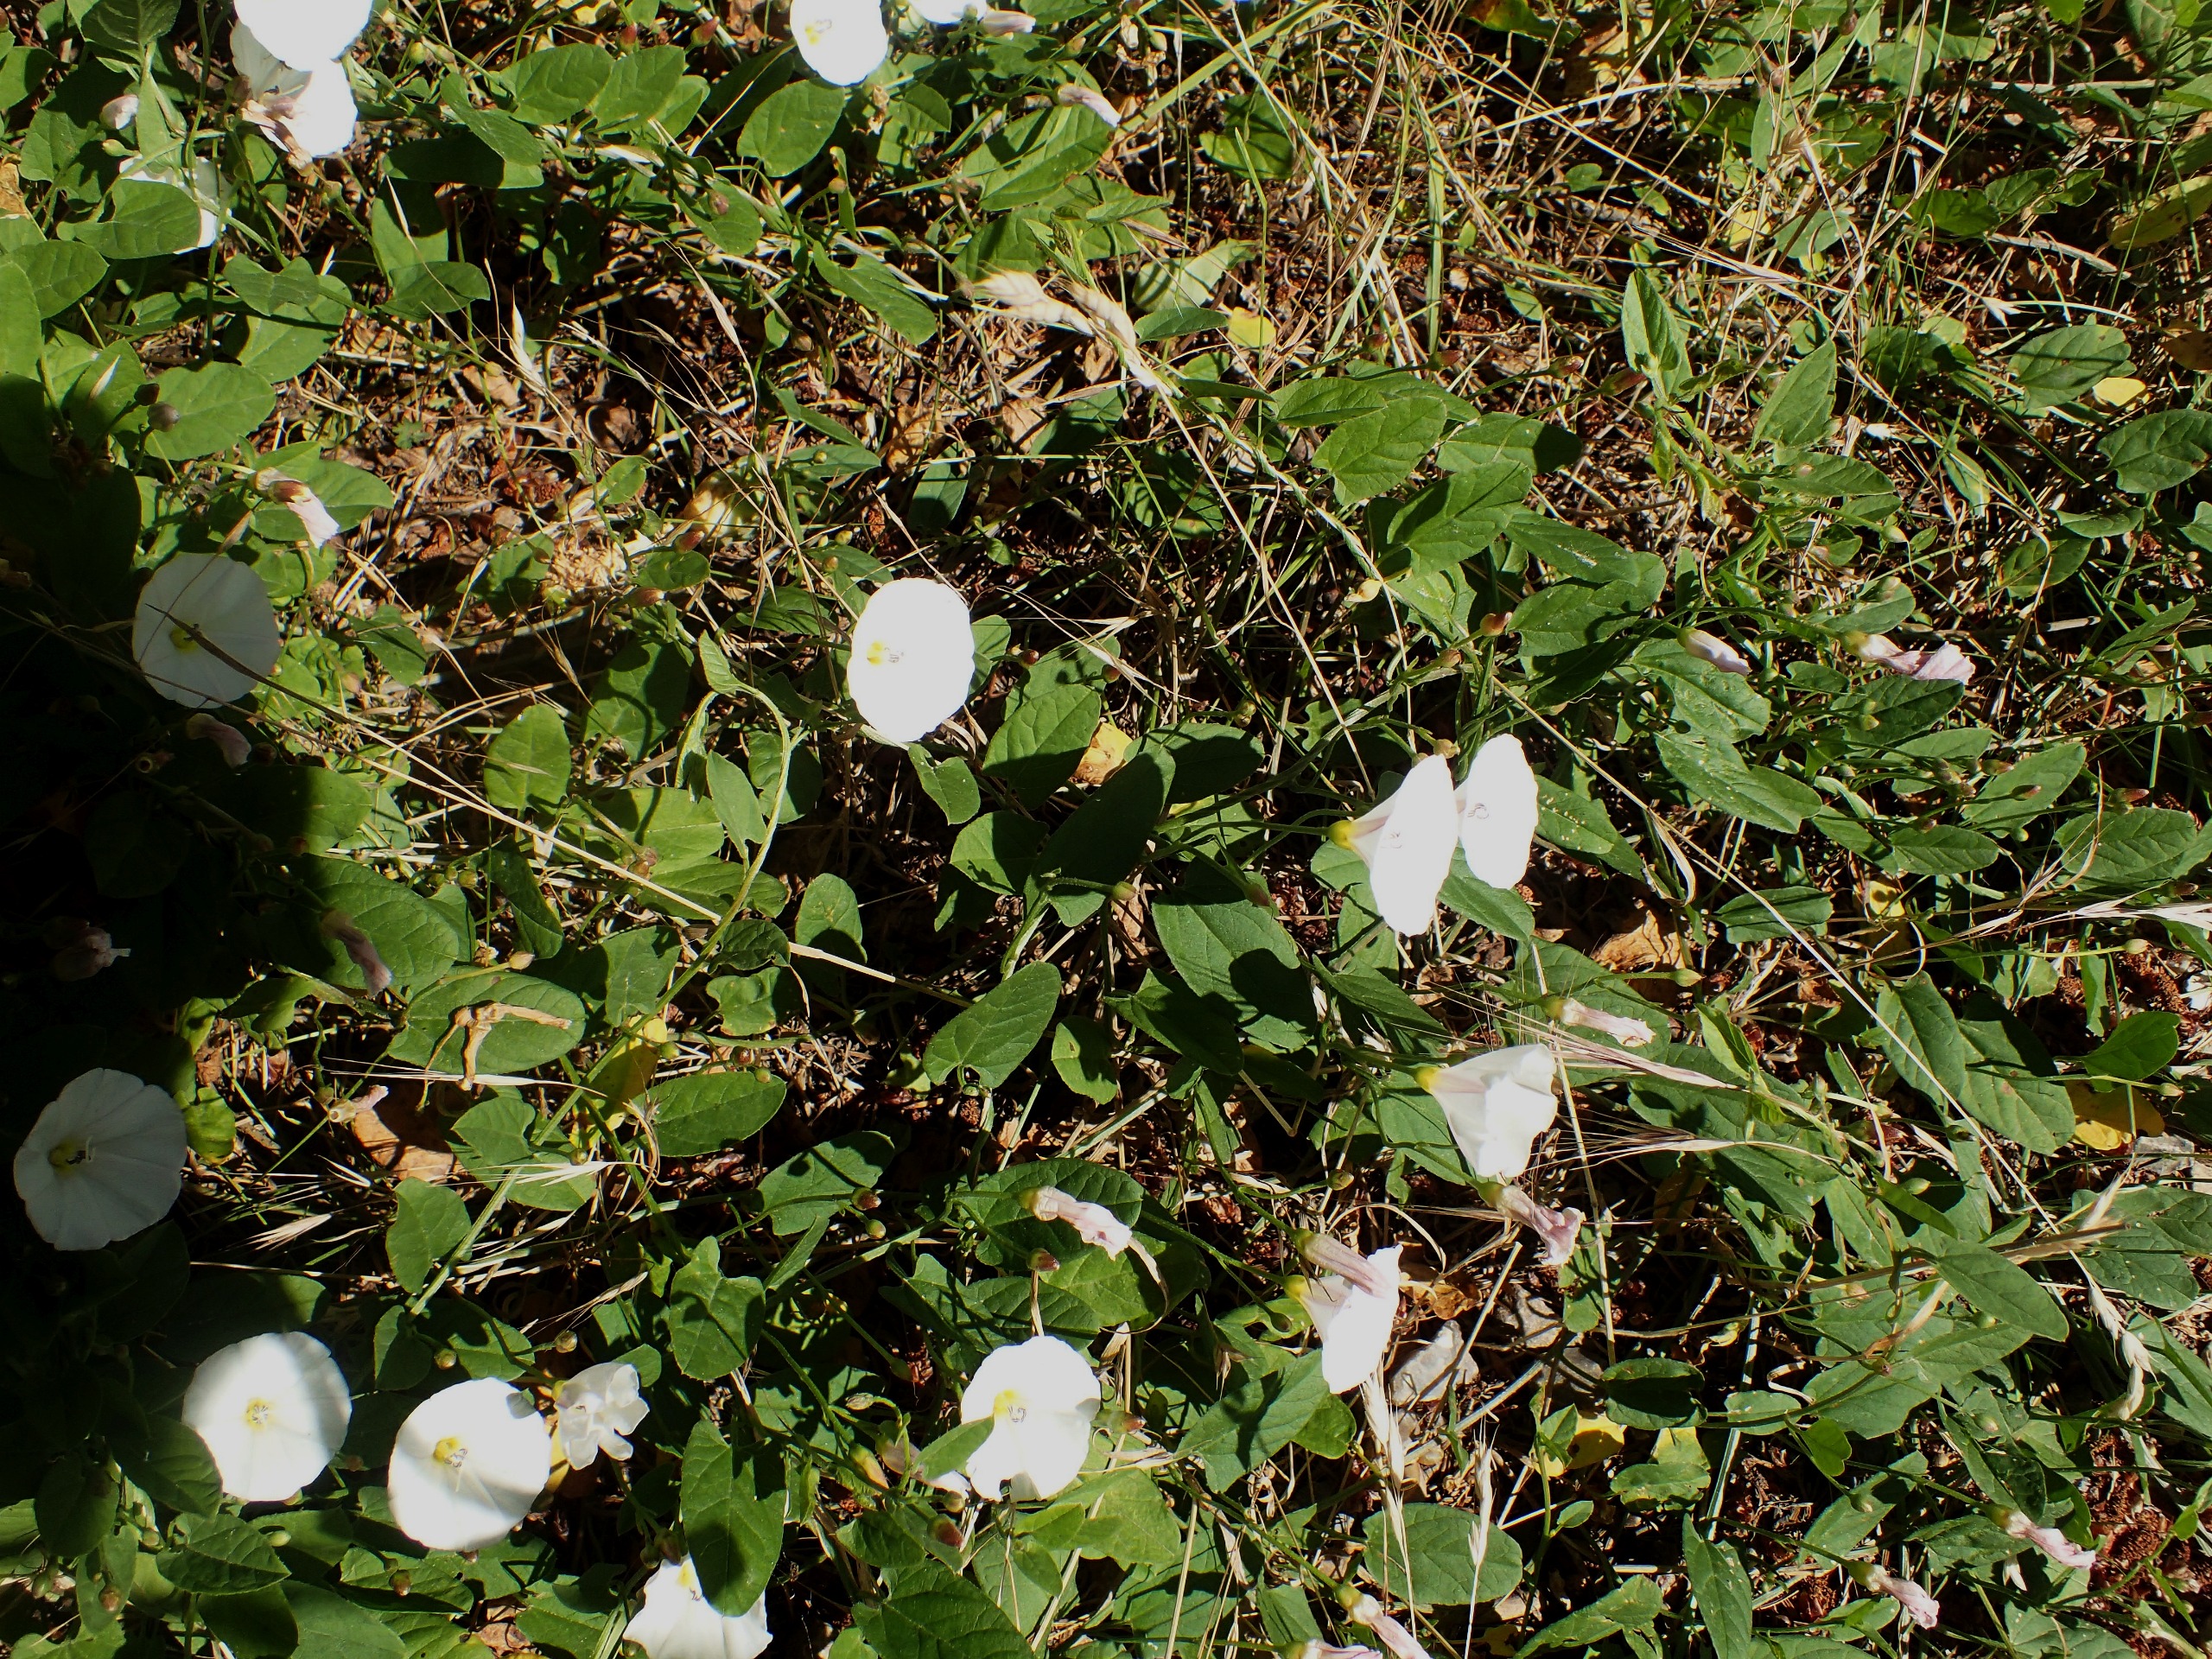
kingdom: Plantae
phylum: Tracheophyta
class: Magnoliopsida
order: Solanales
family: Convolvulaceae
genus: Convolvulus
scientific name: Convolvulus arvensis
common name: Ager-snerle
